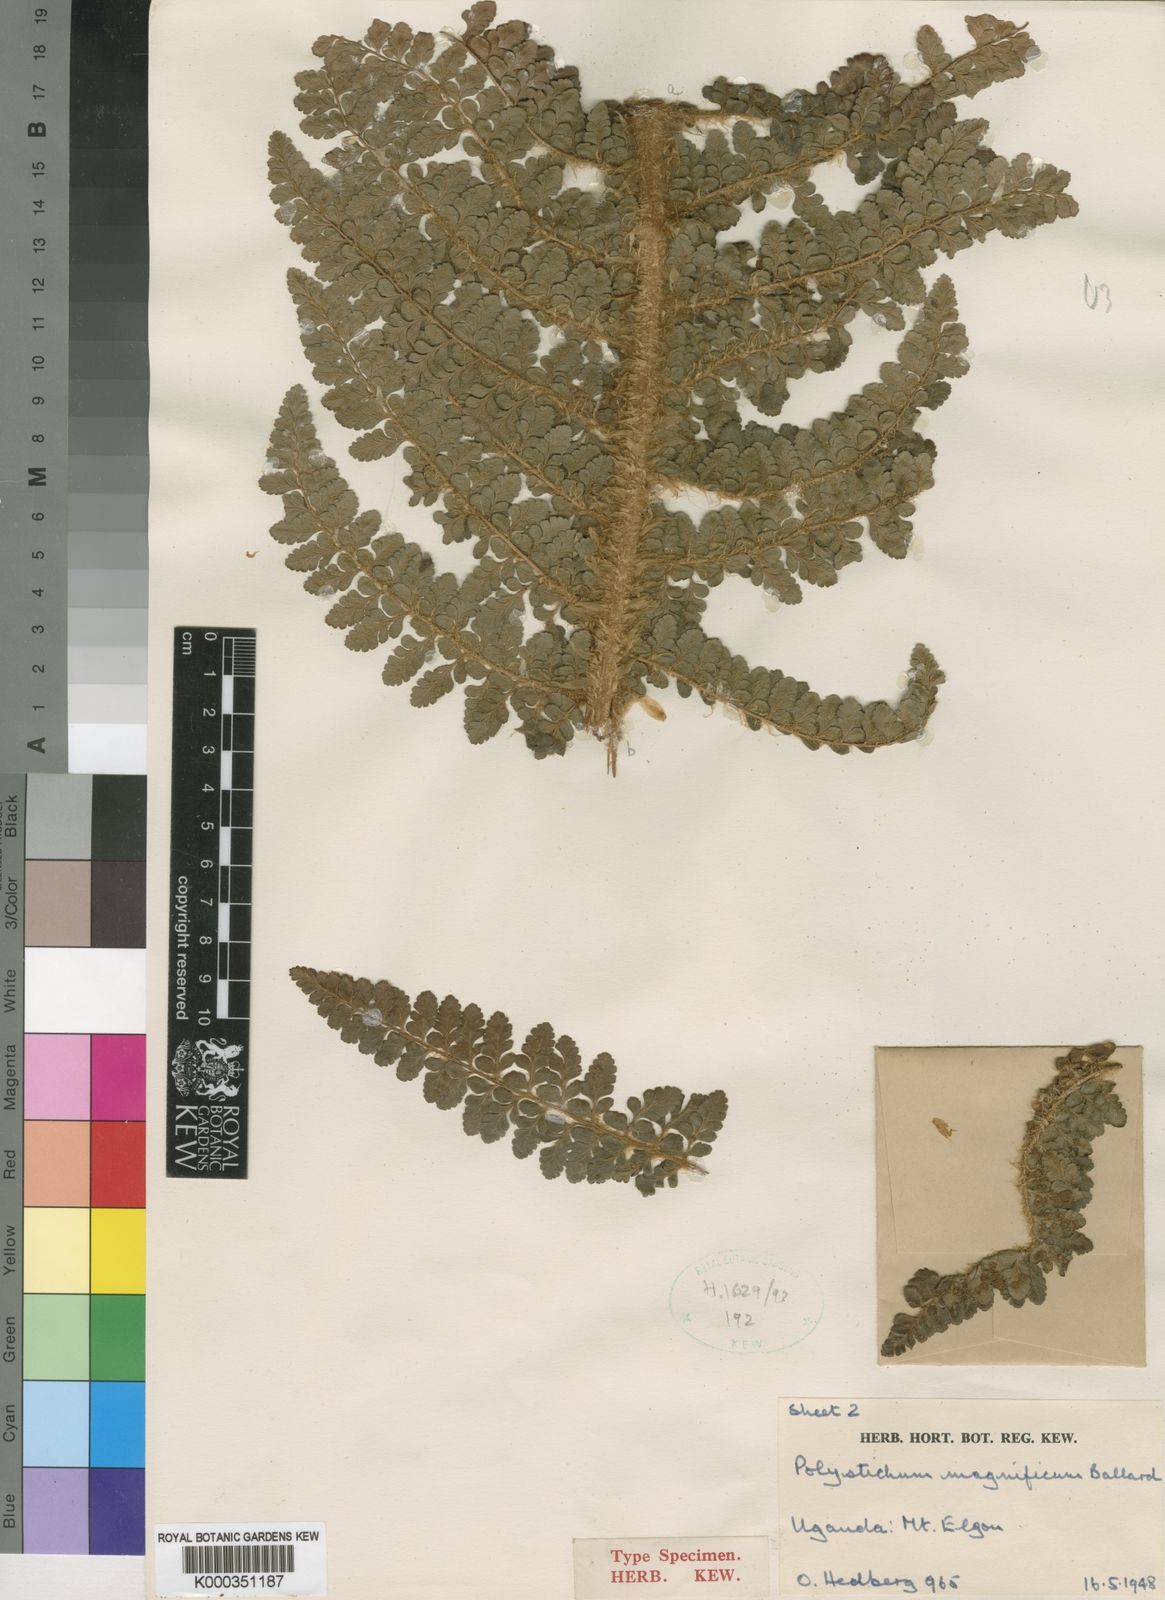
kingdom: Plantae
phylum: Tracheophyta
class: Polypodiopsida
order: Polypodiales
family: Dryopteridaceae
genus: Polystichum
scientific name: Polystichum magnificum
